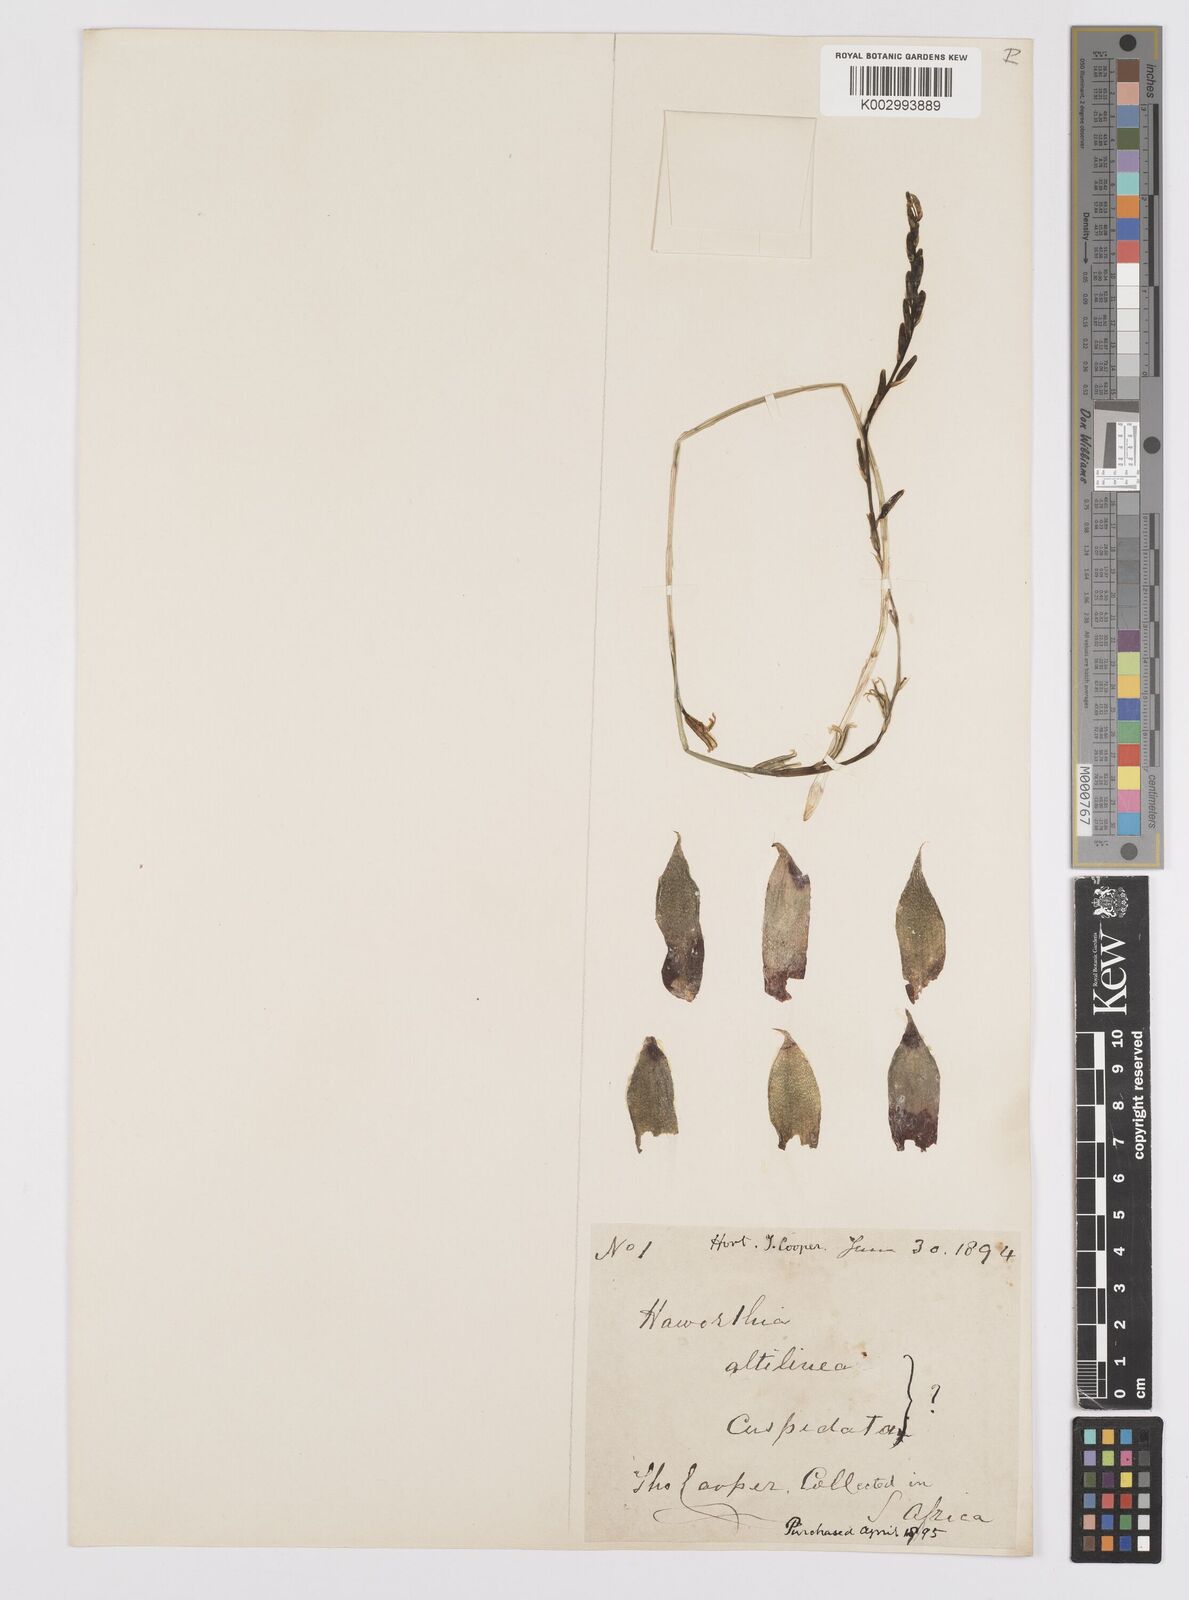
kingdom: Plantae
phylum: Tracheophyta
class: Liliopsida
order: Asparagales
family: Asphodelaceae
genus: Haworthia
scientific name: Haworthia mucronata
